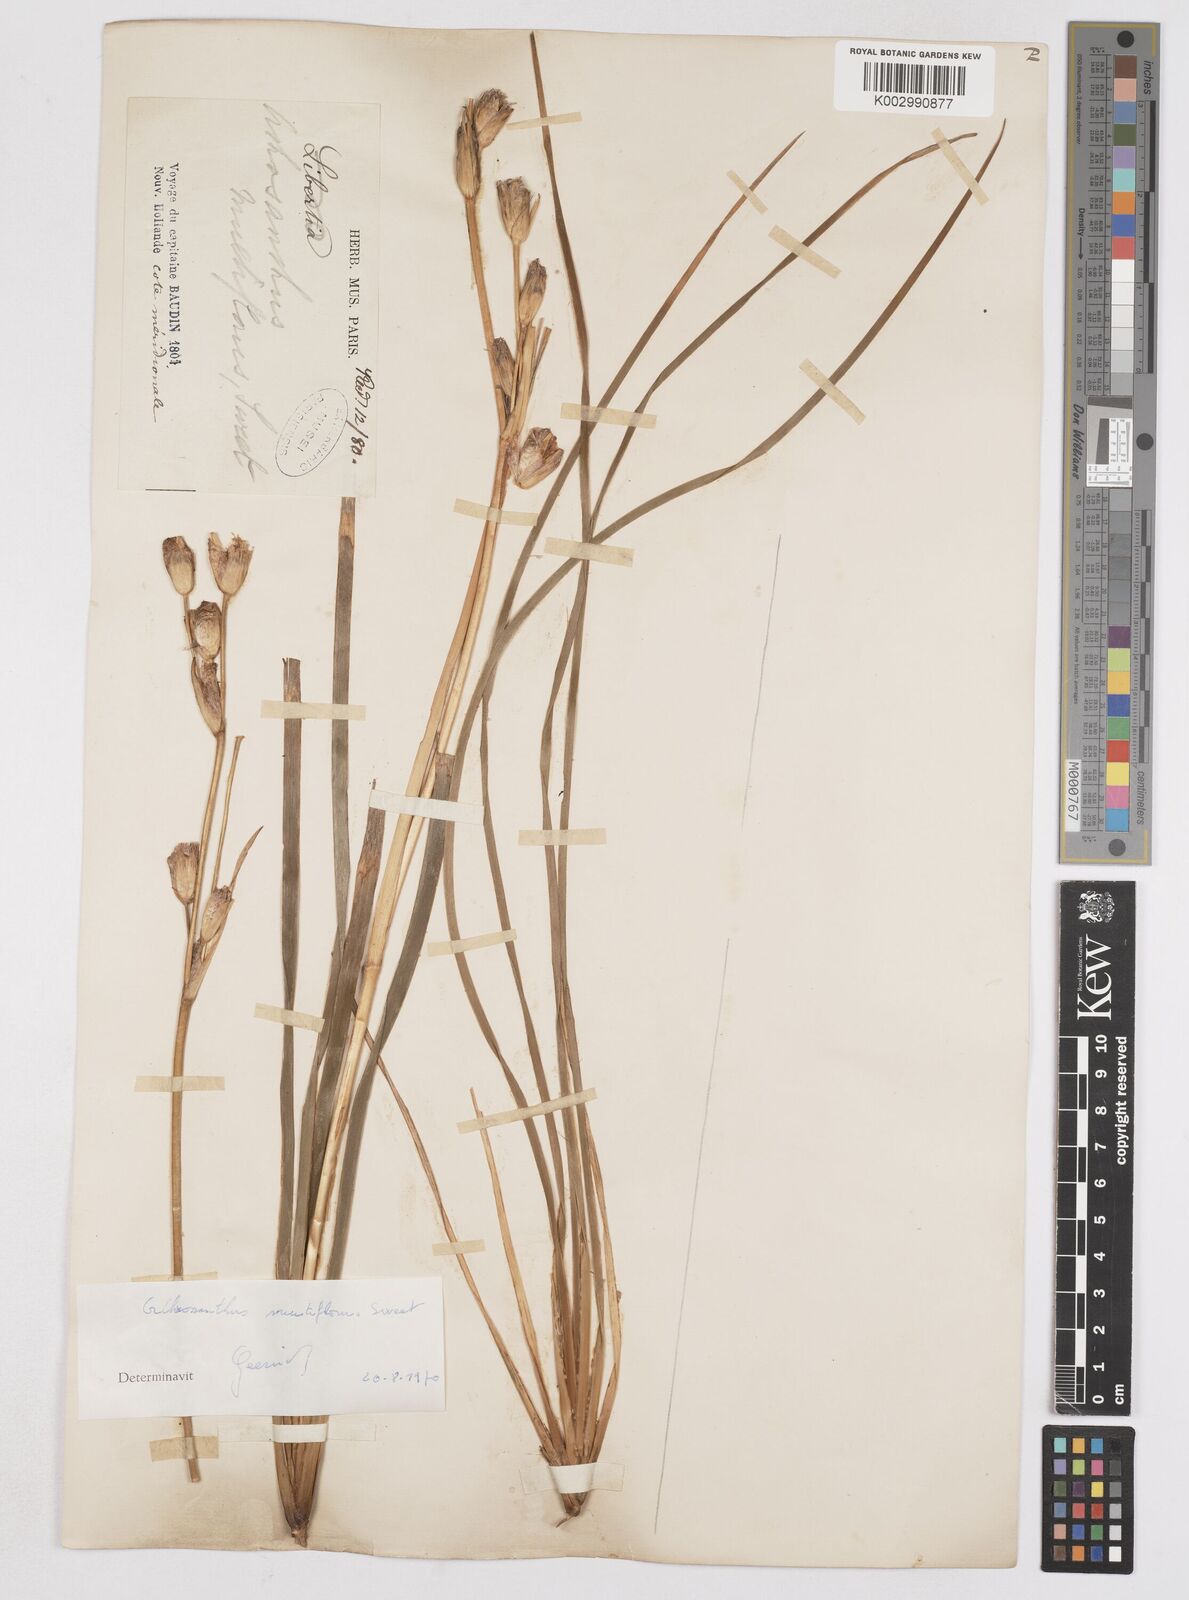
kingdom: Plantae
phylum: Tracheophyta
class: Liliopsida
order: Asparagales
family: Iridaceae
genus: Orthrosanthus
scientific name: Orthrosanthus multiflorus
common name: Morning-flag
